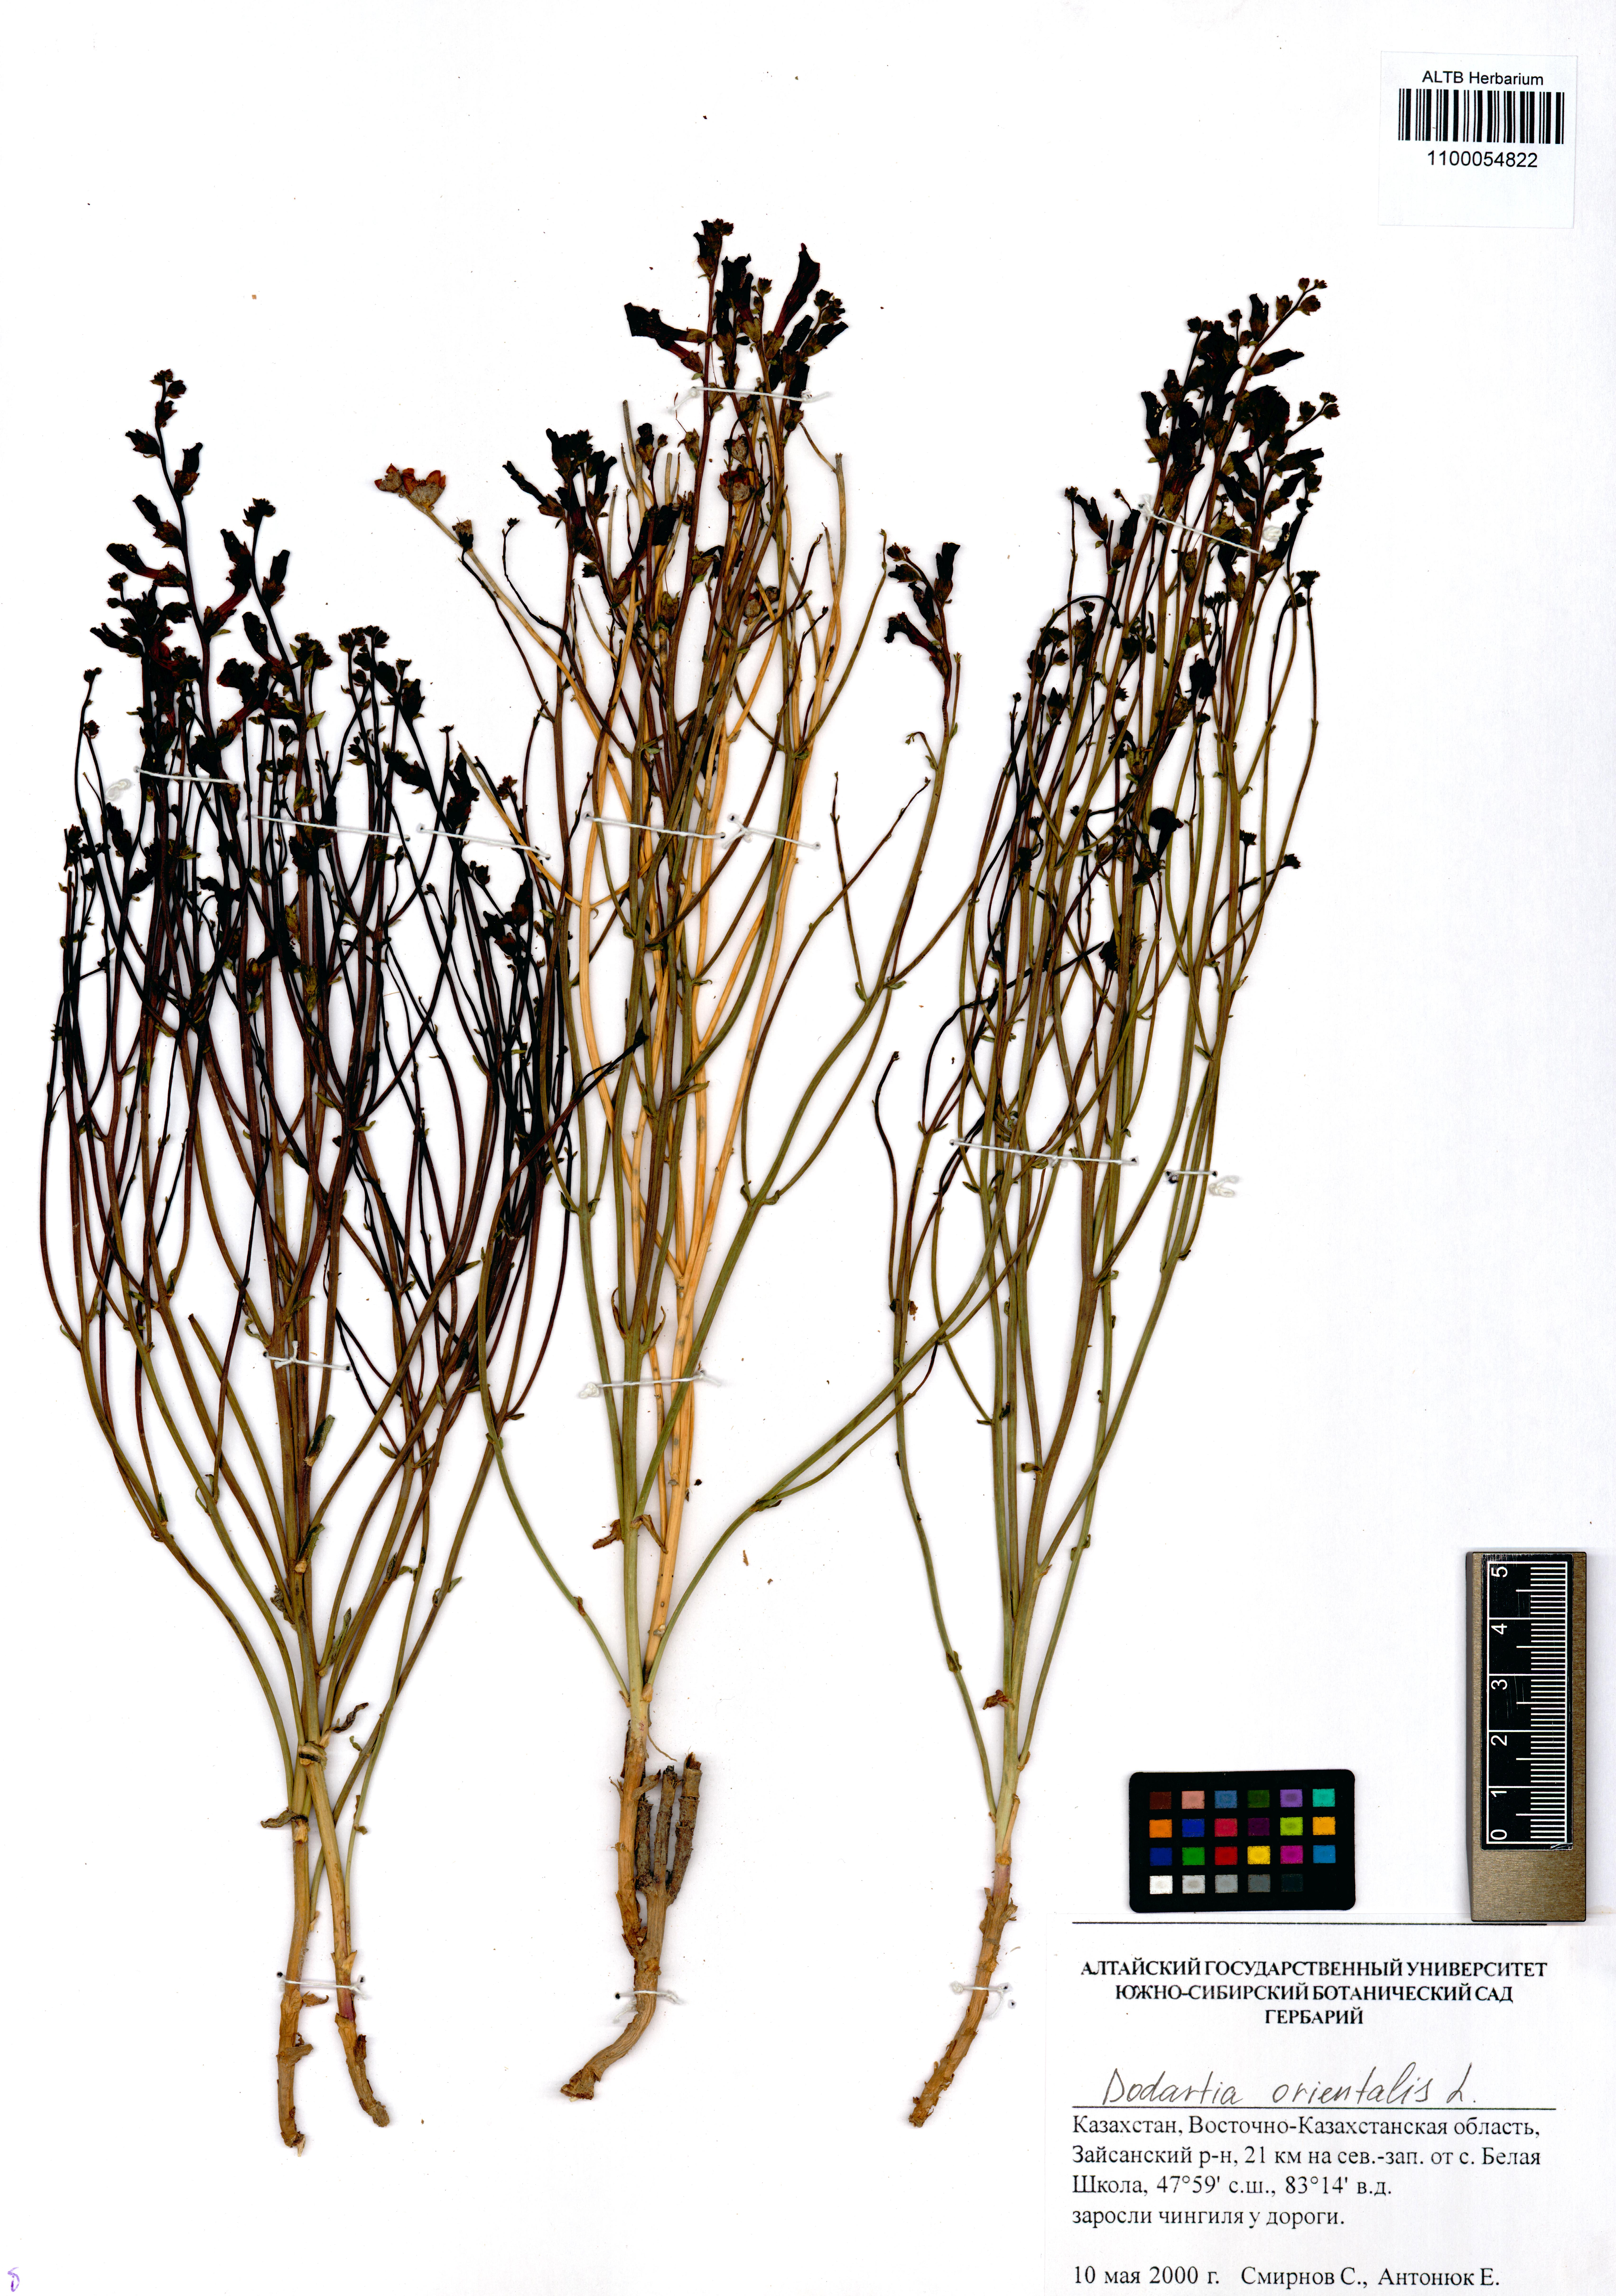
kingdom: Plantae
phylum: Tracheophyta
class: Magnoliopsida
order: Lamiales
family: Mazaceae
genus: Dodartia
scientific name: Dodartia orientalis
